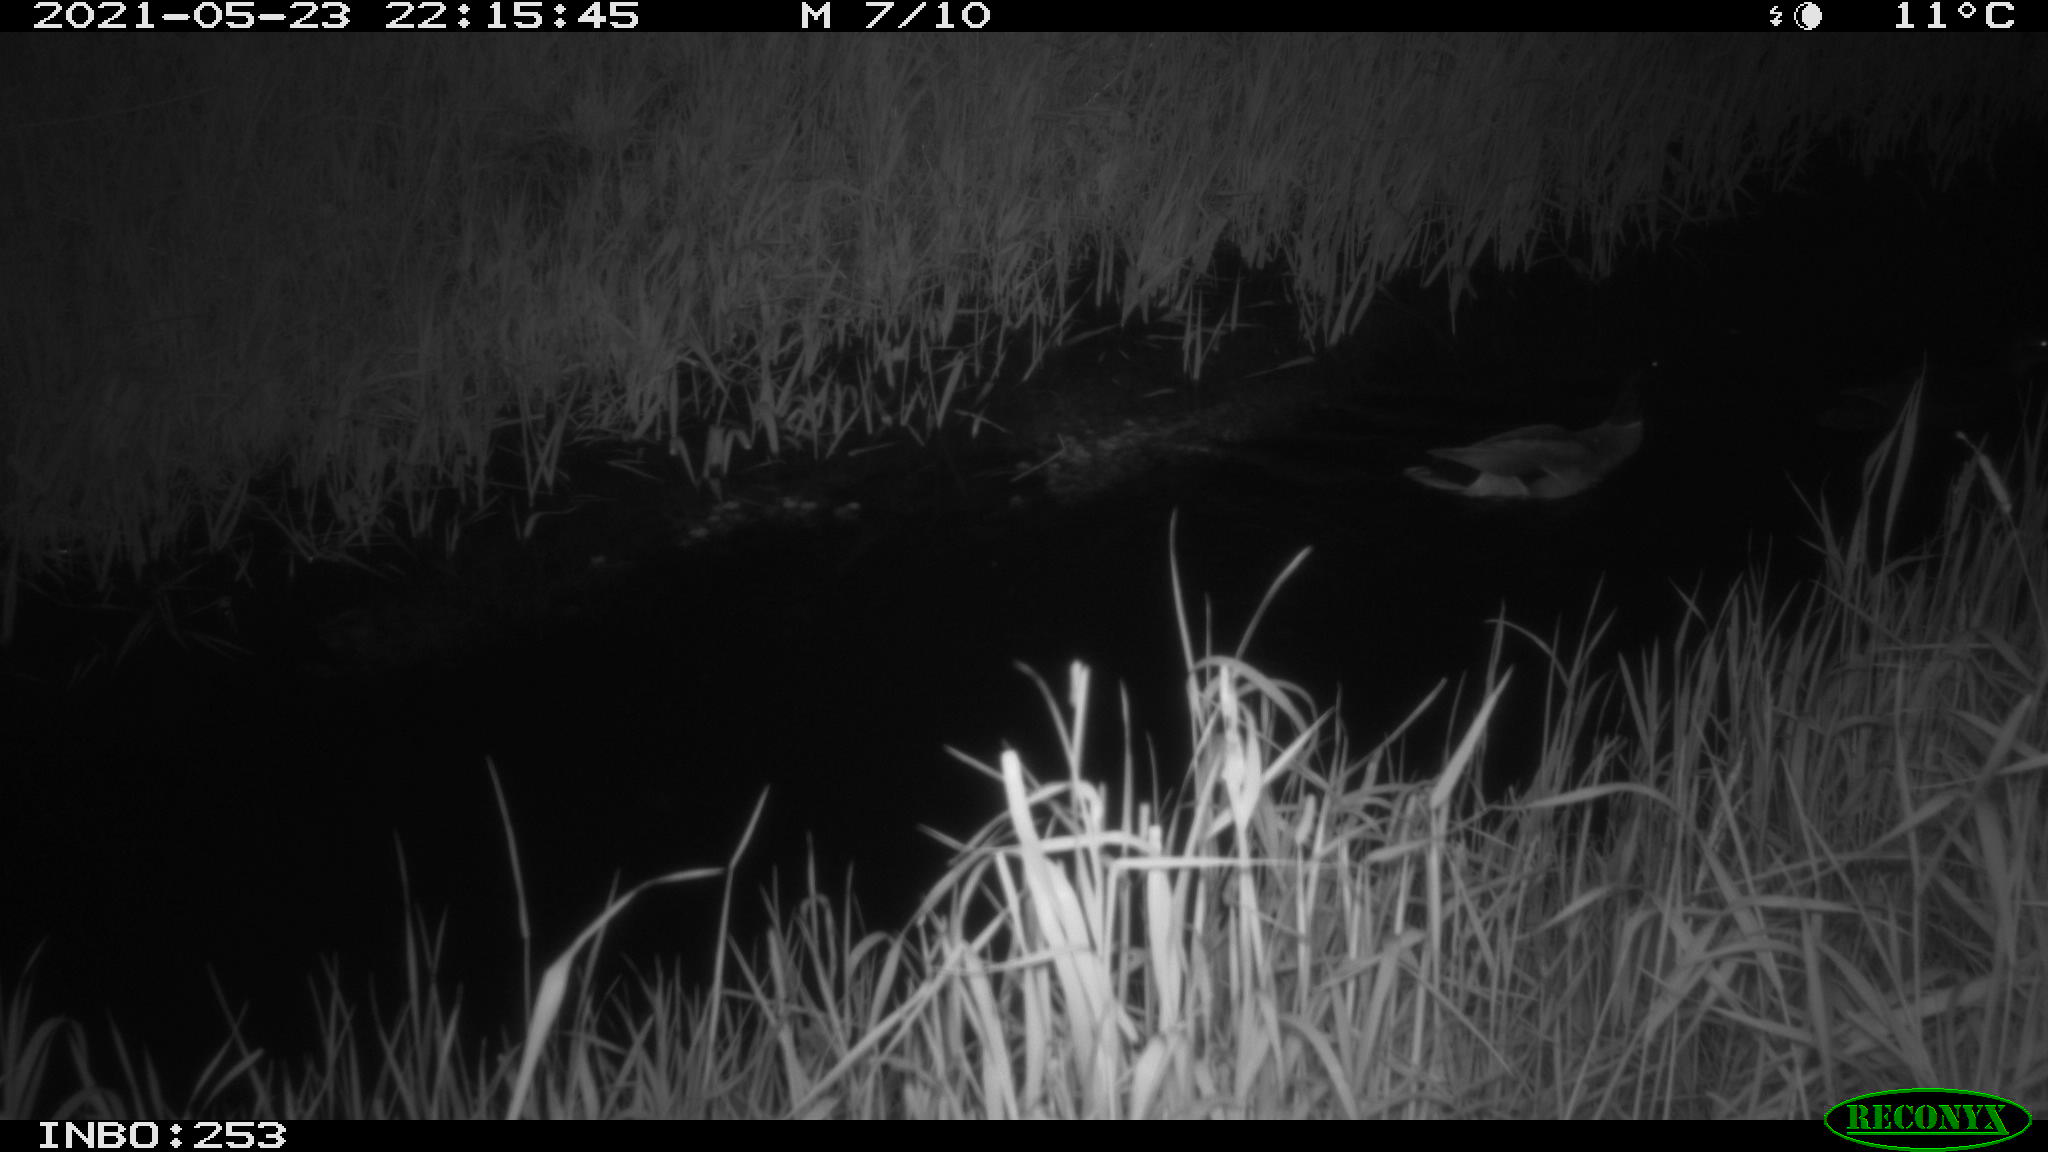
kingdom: Animalia
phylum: Chordata
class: Aves
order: Anseriformes
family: Anatidae
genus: Anas
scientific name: Anas platyrhynchos
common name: Mallard
